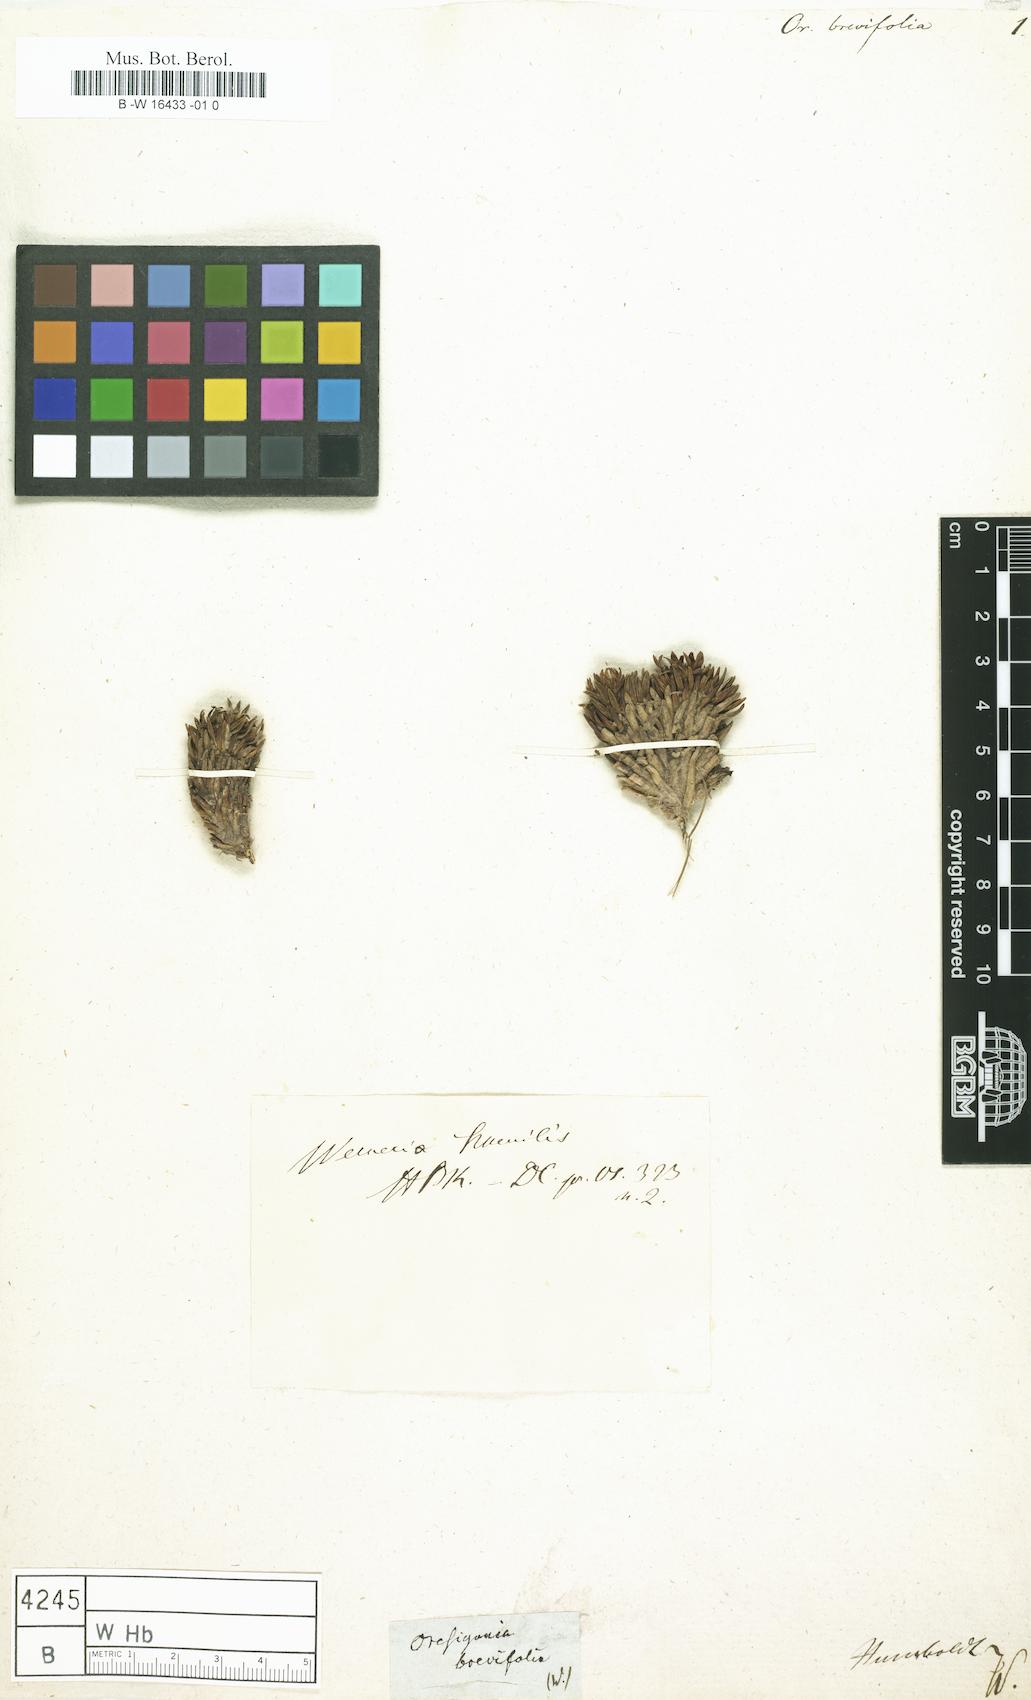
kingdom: Plantae
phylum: Tracheophyta
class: Magnoliopsida
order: Asterales
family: Asteraceae
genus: Werneria
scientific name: Werneria humilis
